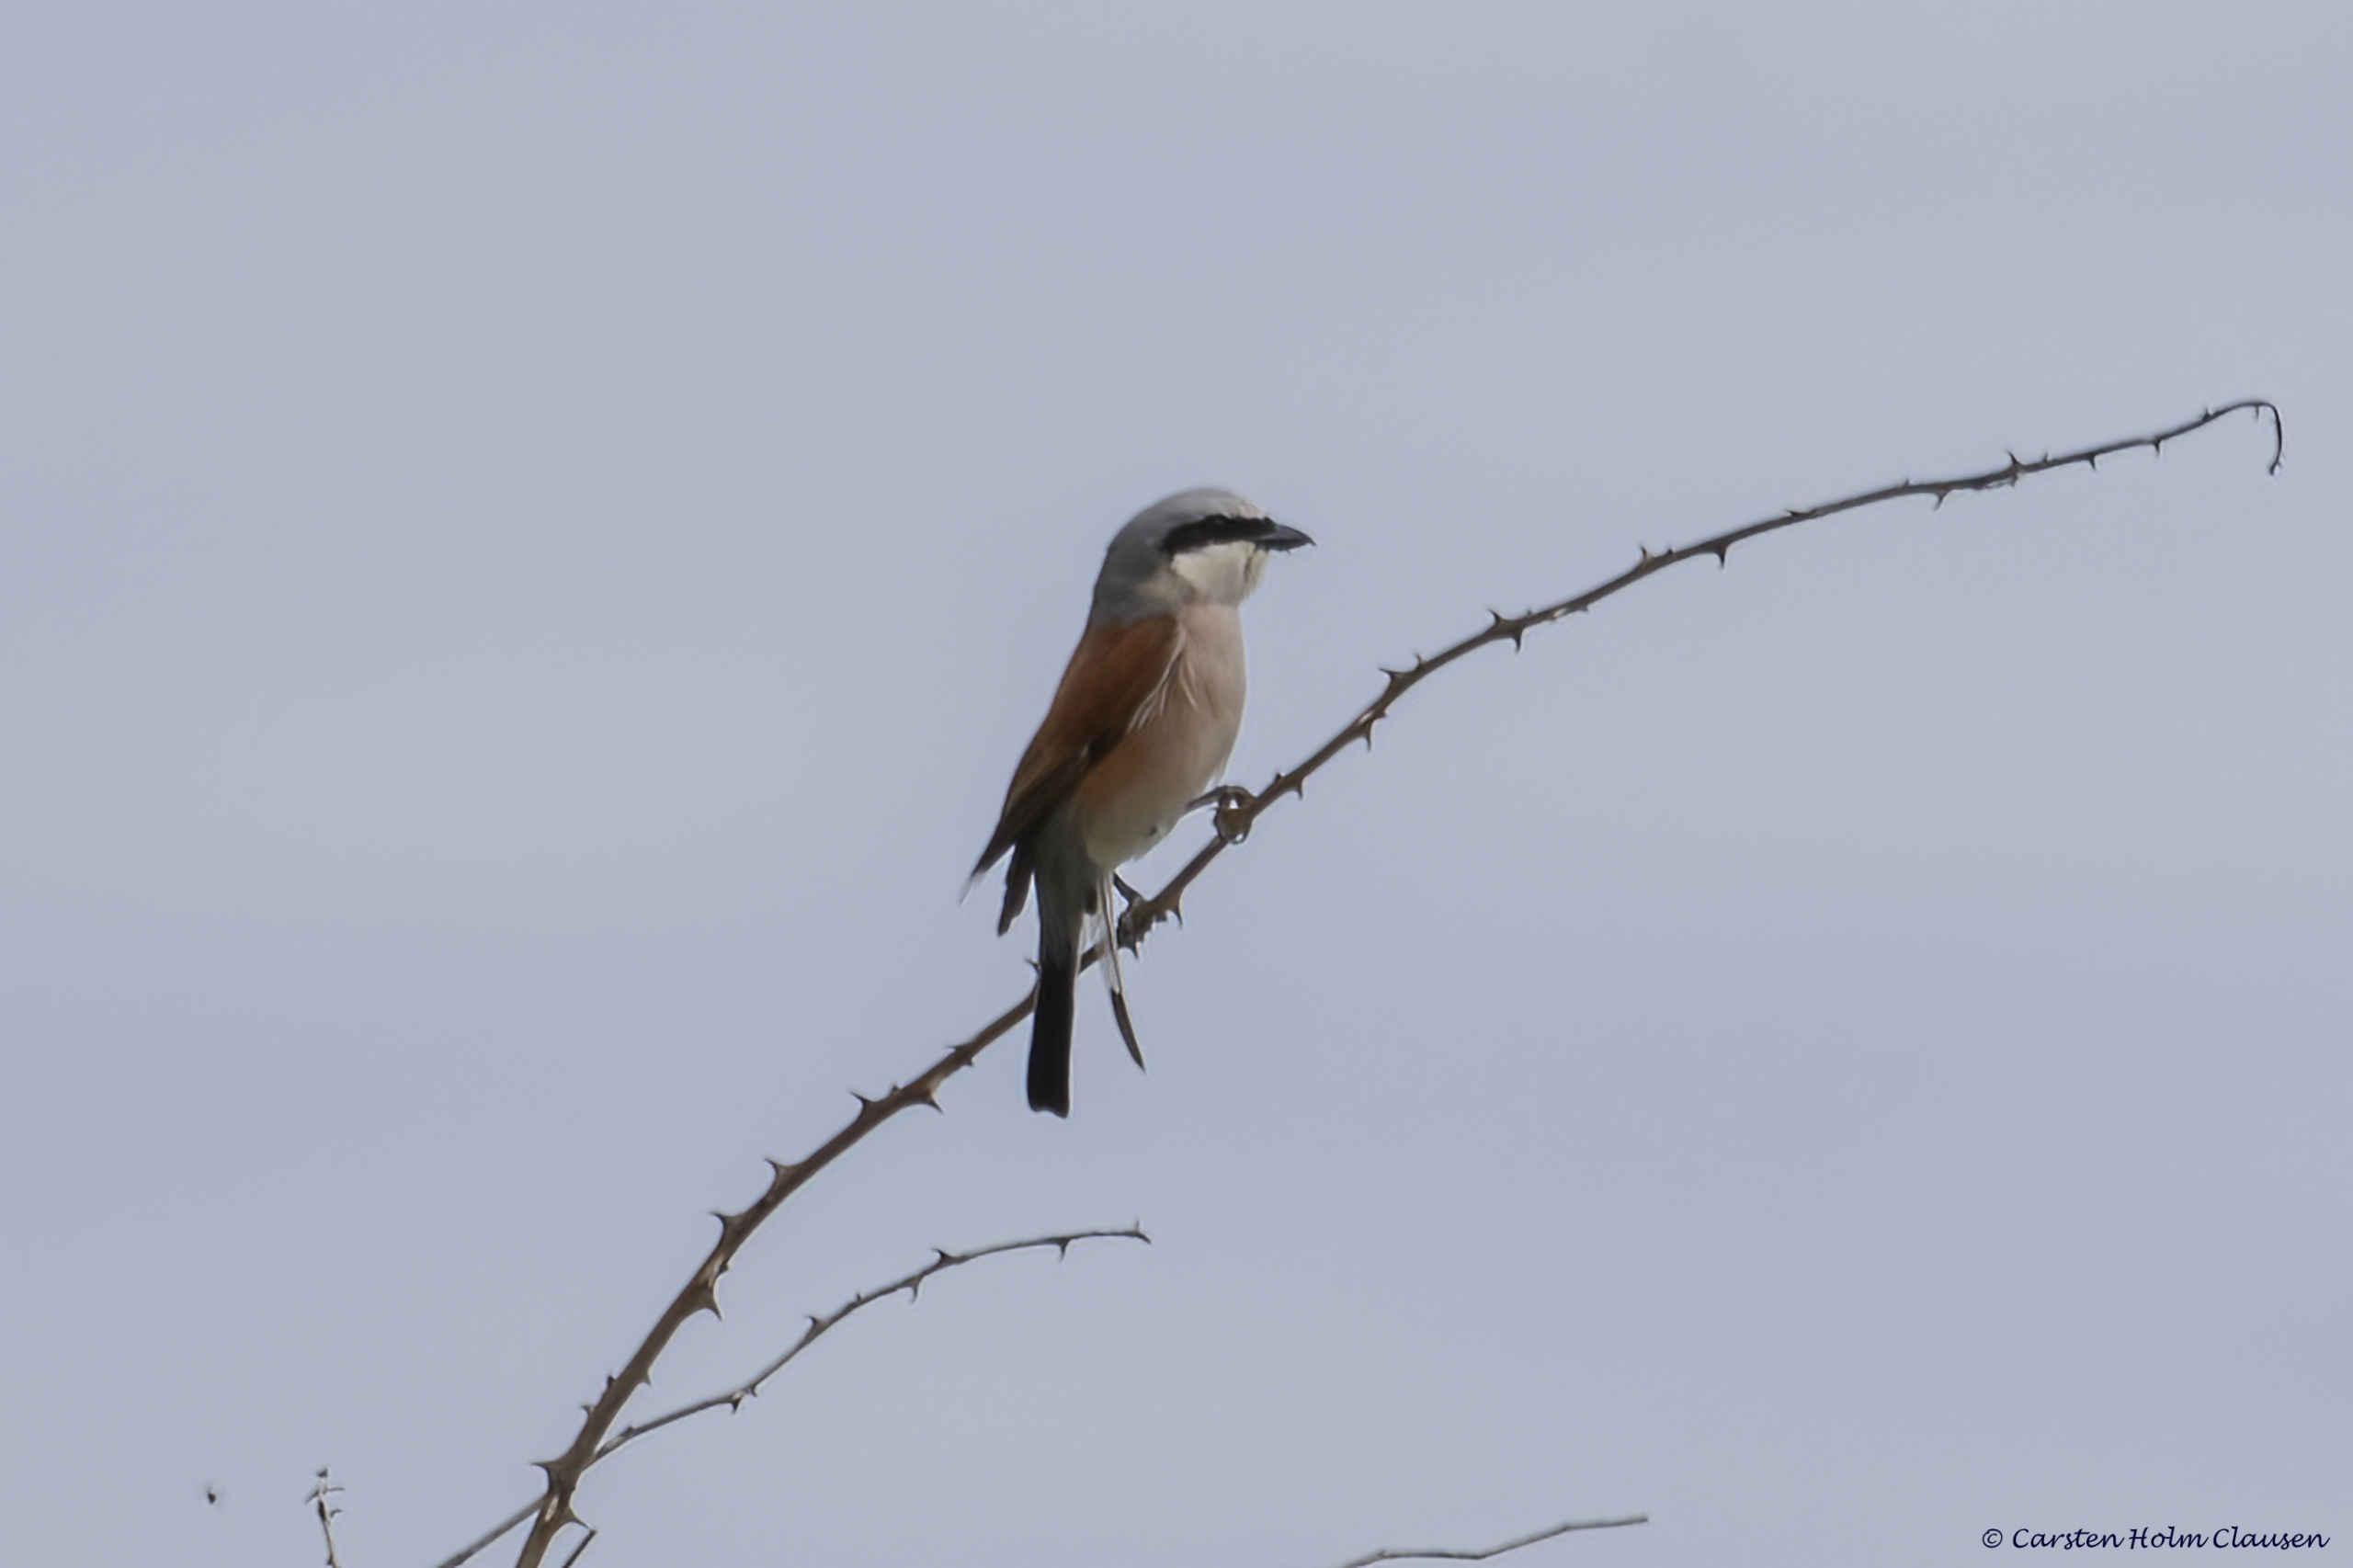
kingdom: Animalia
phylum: Chordata
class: Aves
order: Passeriformes
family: Laniidae
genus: Lanius
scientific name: Lanius collurio
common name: Rødrygget tornskade
